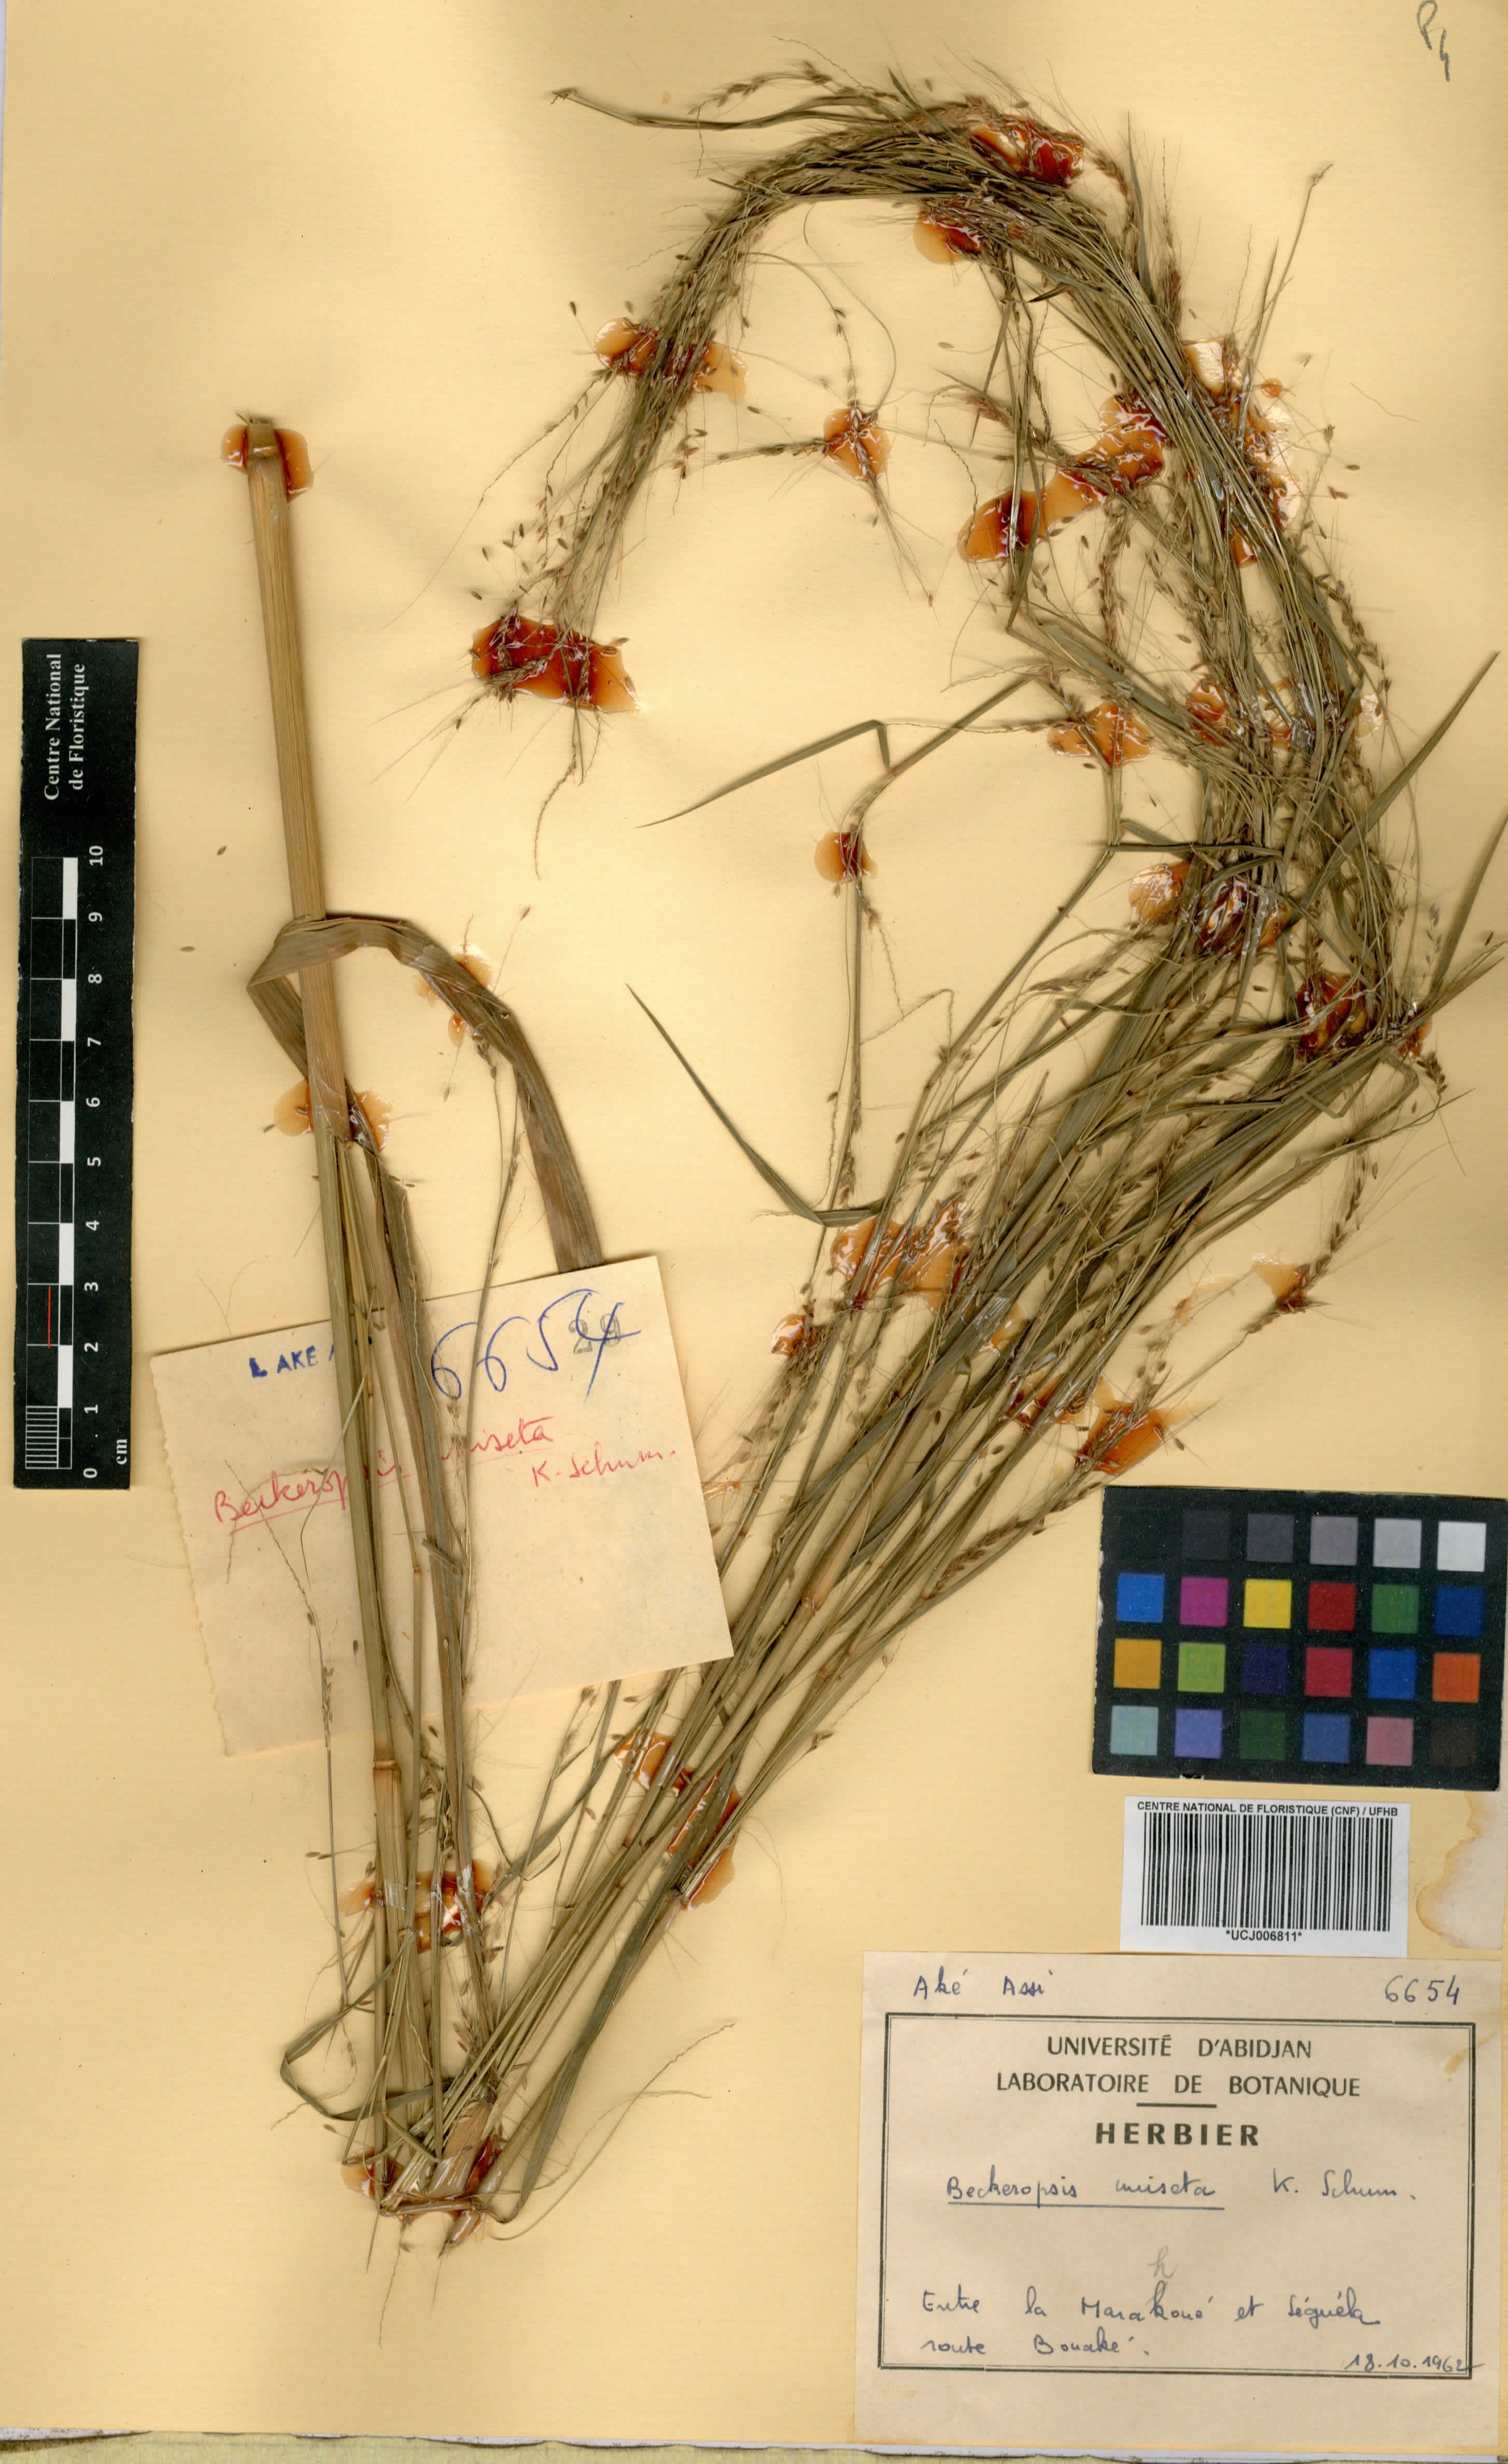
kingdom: Plantae
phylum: Tracheophyta
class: Liliopsida
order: Poales
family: Poaceae
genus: Cenchrus
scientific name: Cenchrus unisetus
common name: Natal grass
